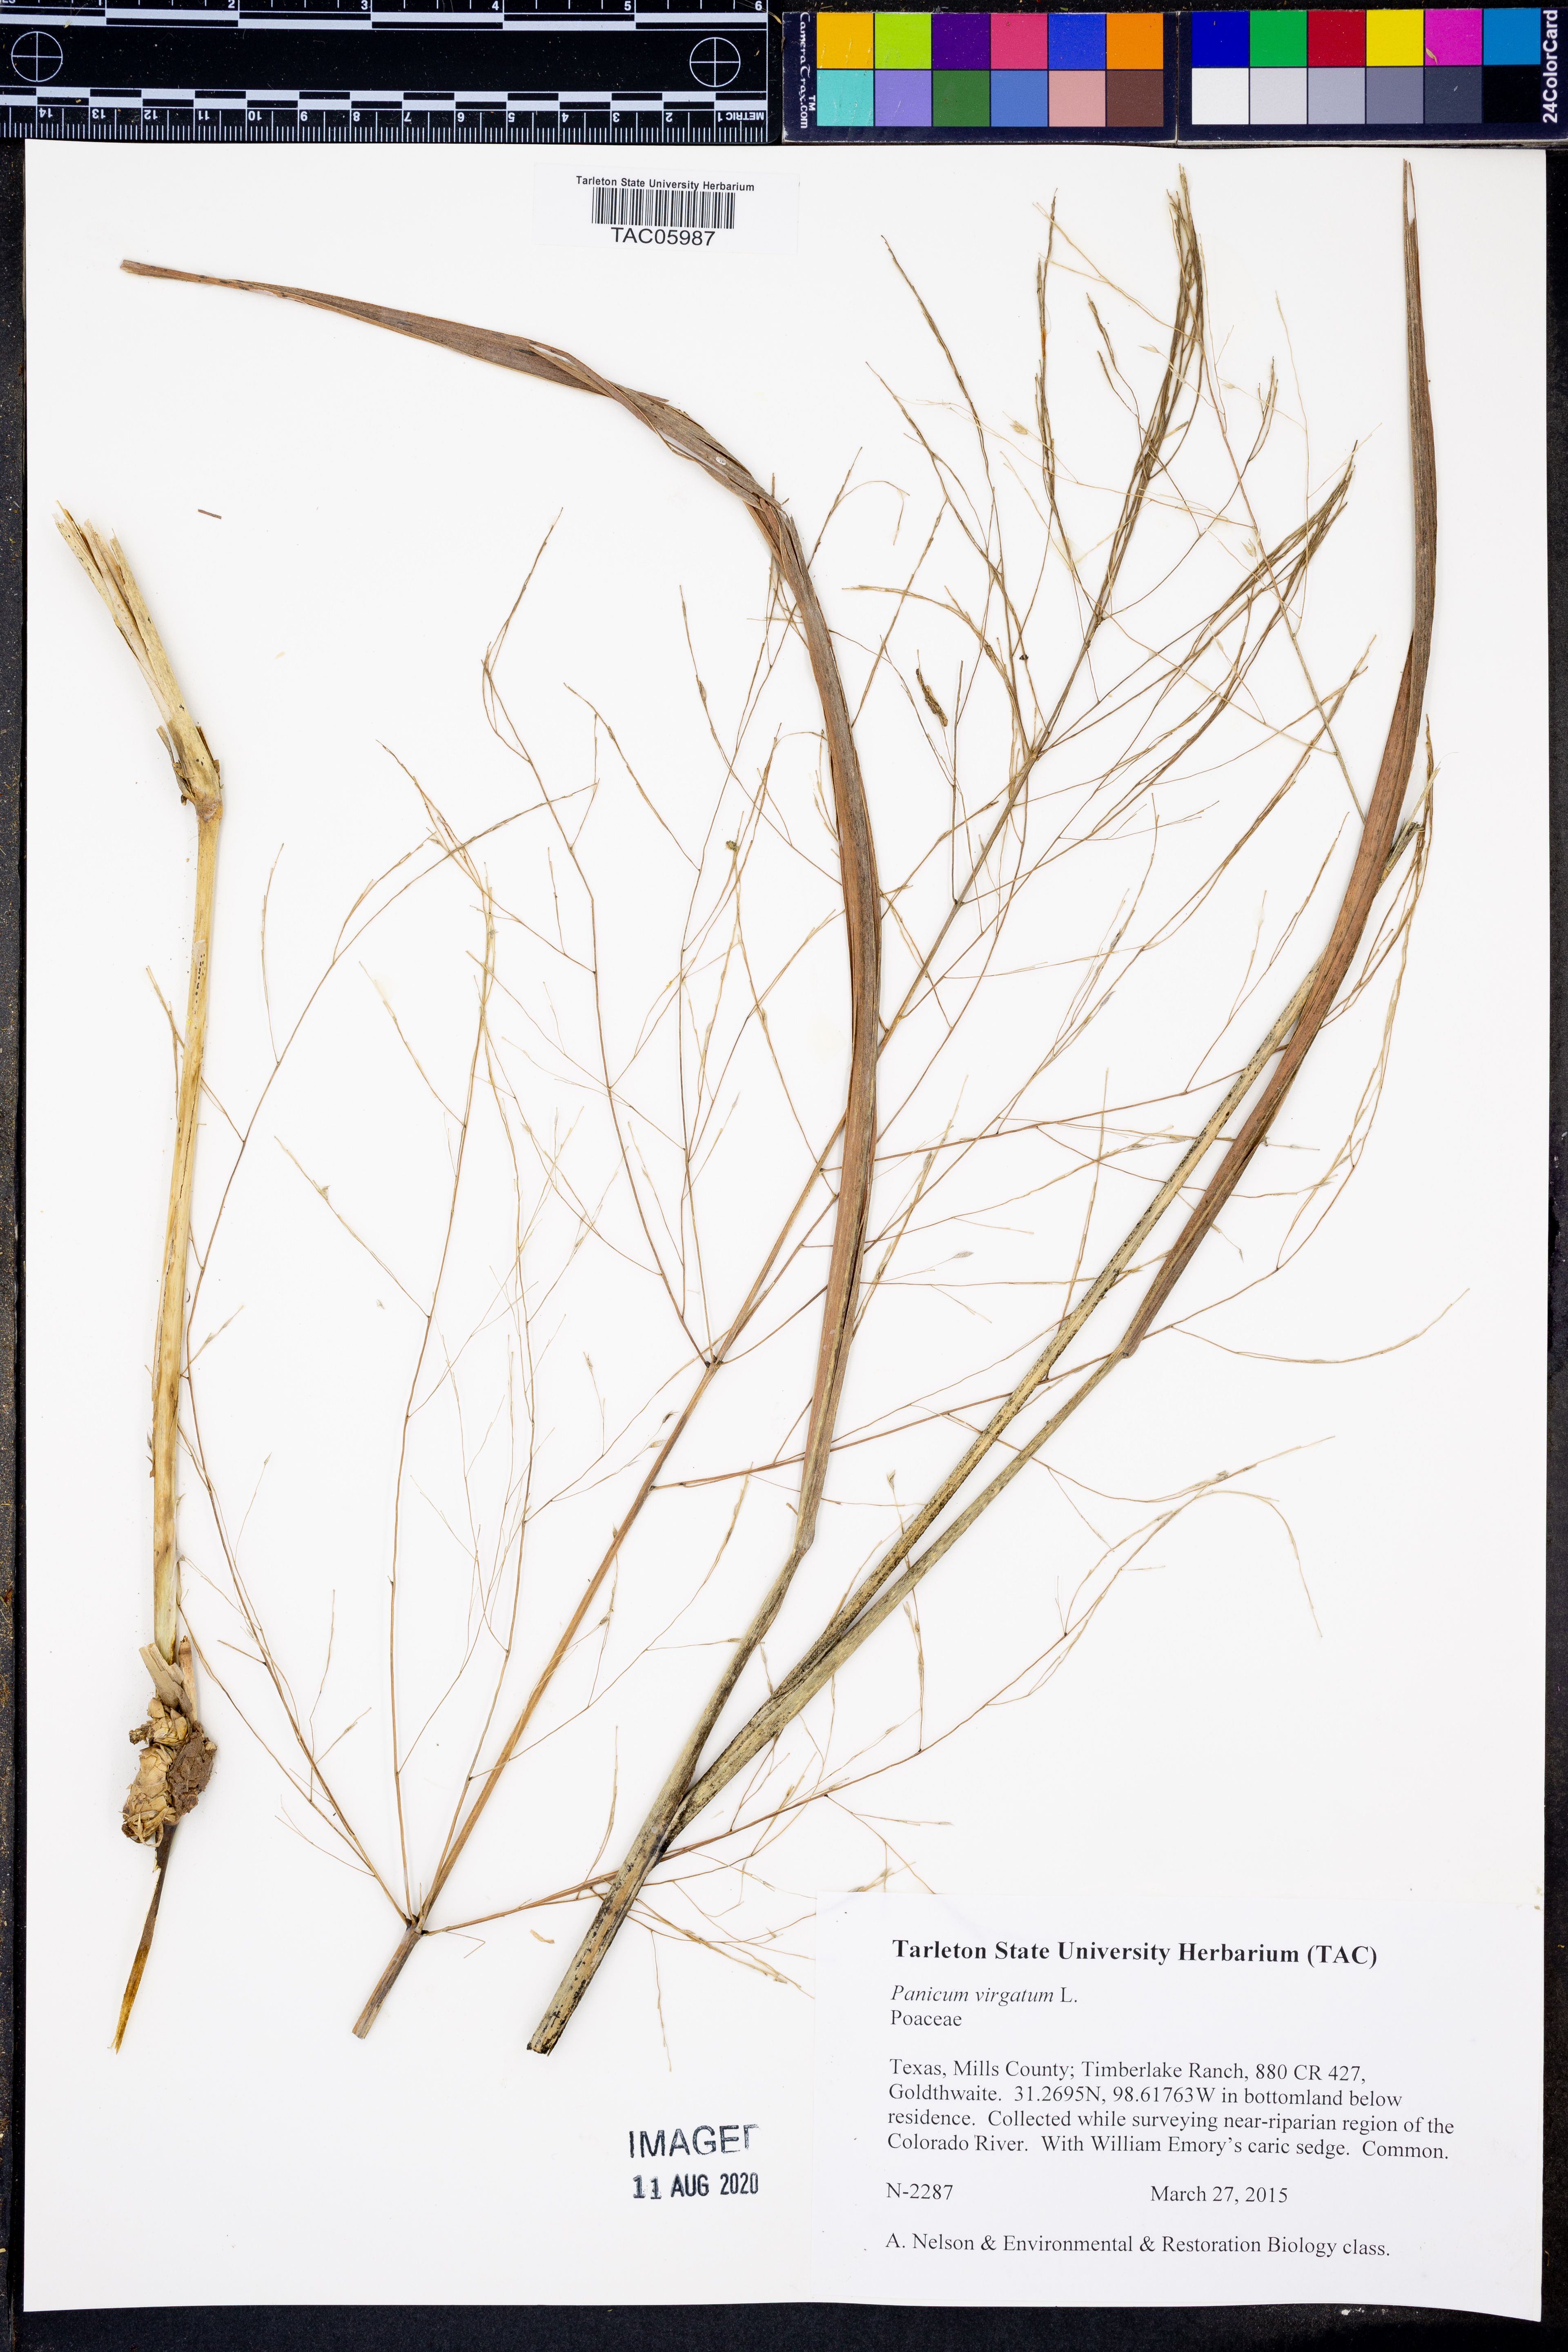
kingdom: Plantae
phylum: Tracheophyta
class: Liliopsida
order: Poales
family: Poaceae
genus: Panicum
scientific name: Panicum virgatum
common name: Switchgrass
